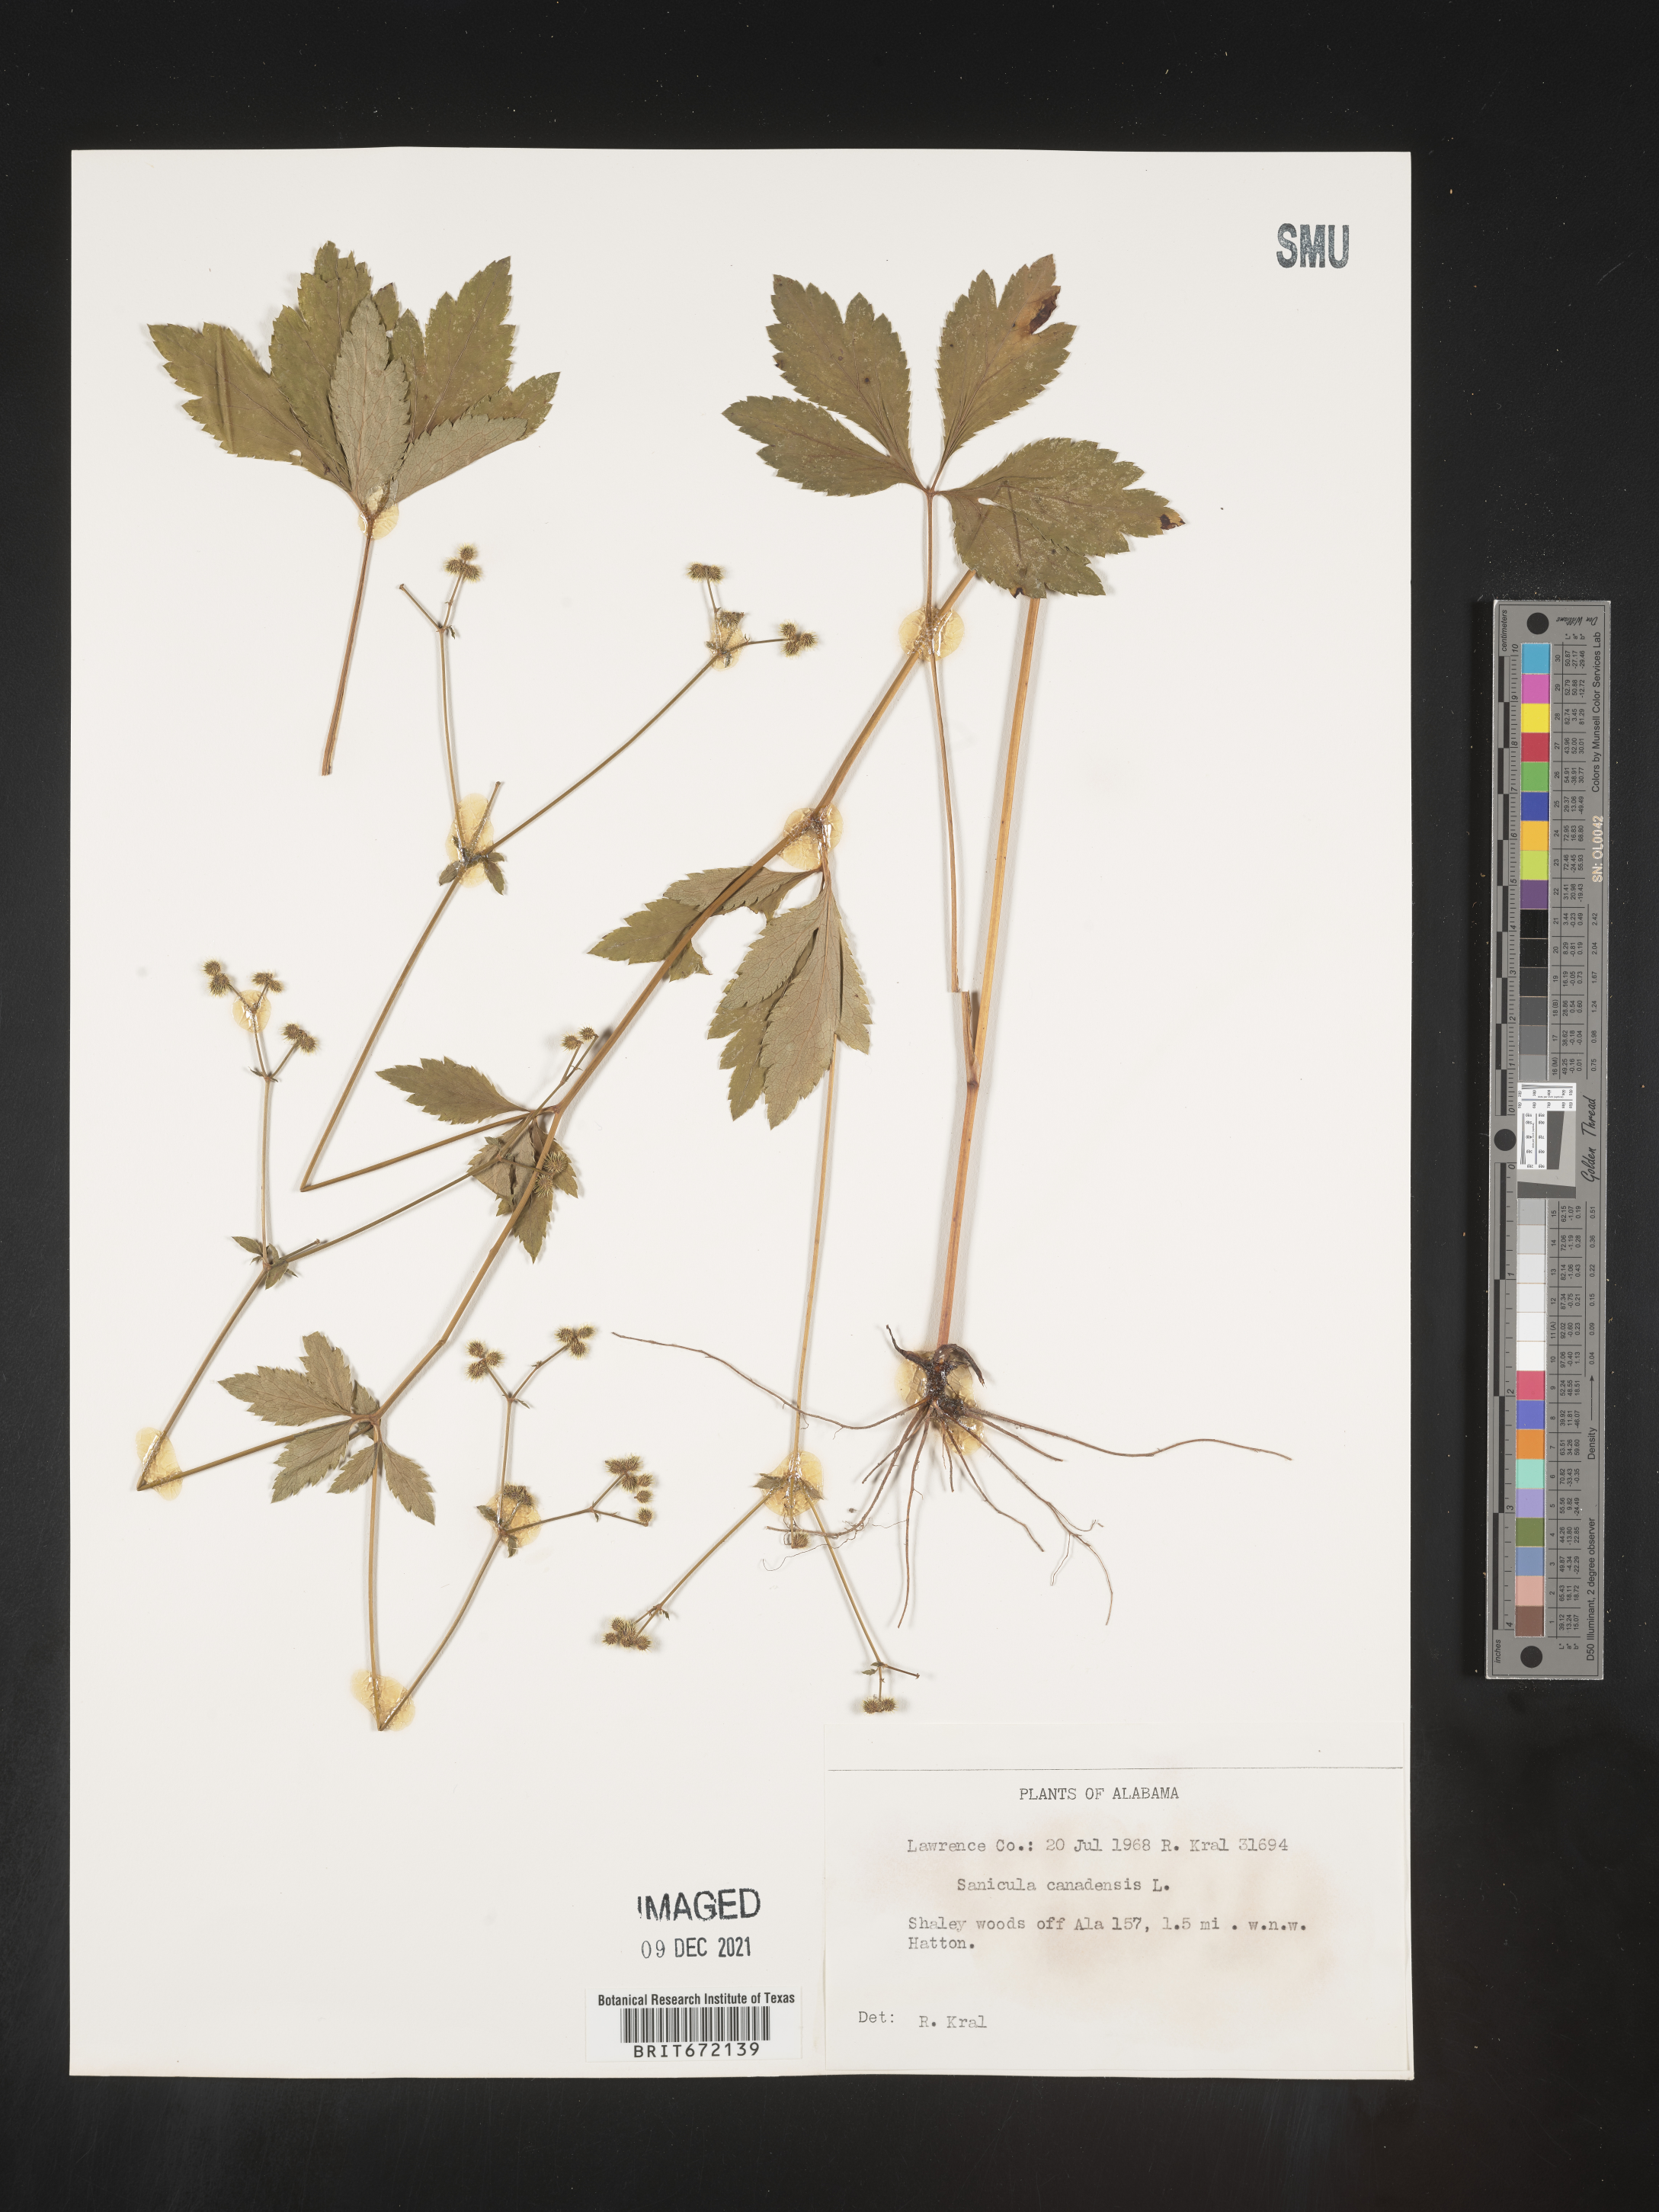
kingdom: Plantae
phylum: Tracheophyta
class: Magnoliopsida
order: Apiales
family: Apiaceae
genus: Sanicula
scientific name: Sanicula canadensis
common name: Canada sanicle
